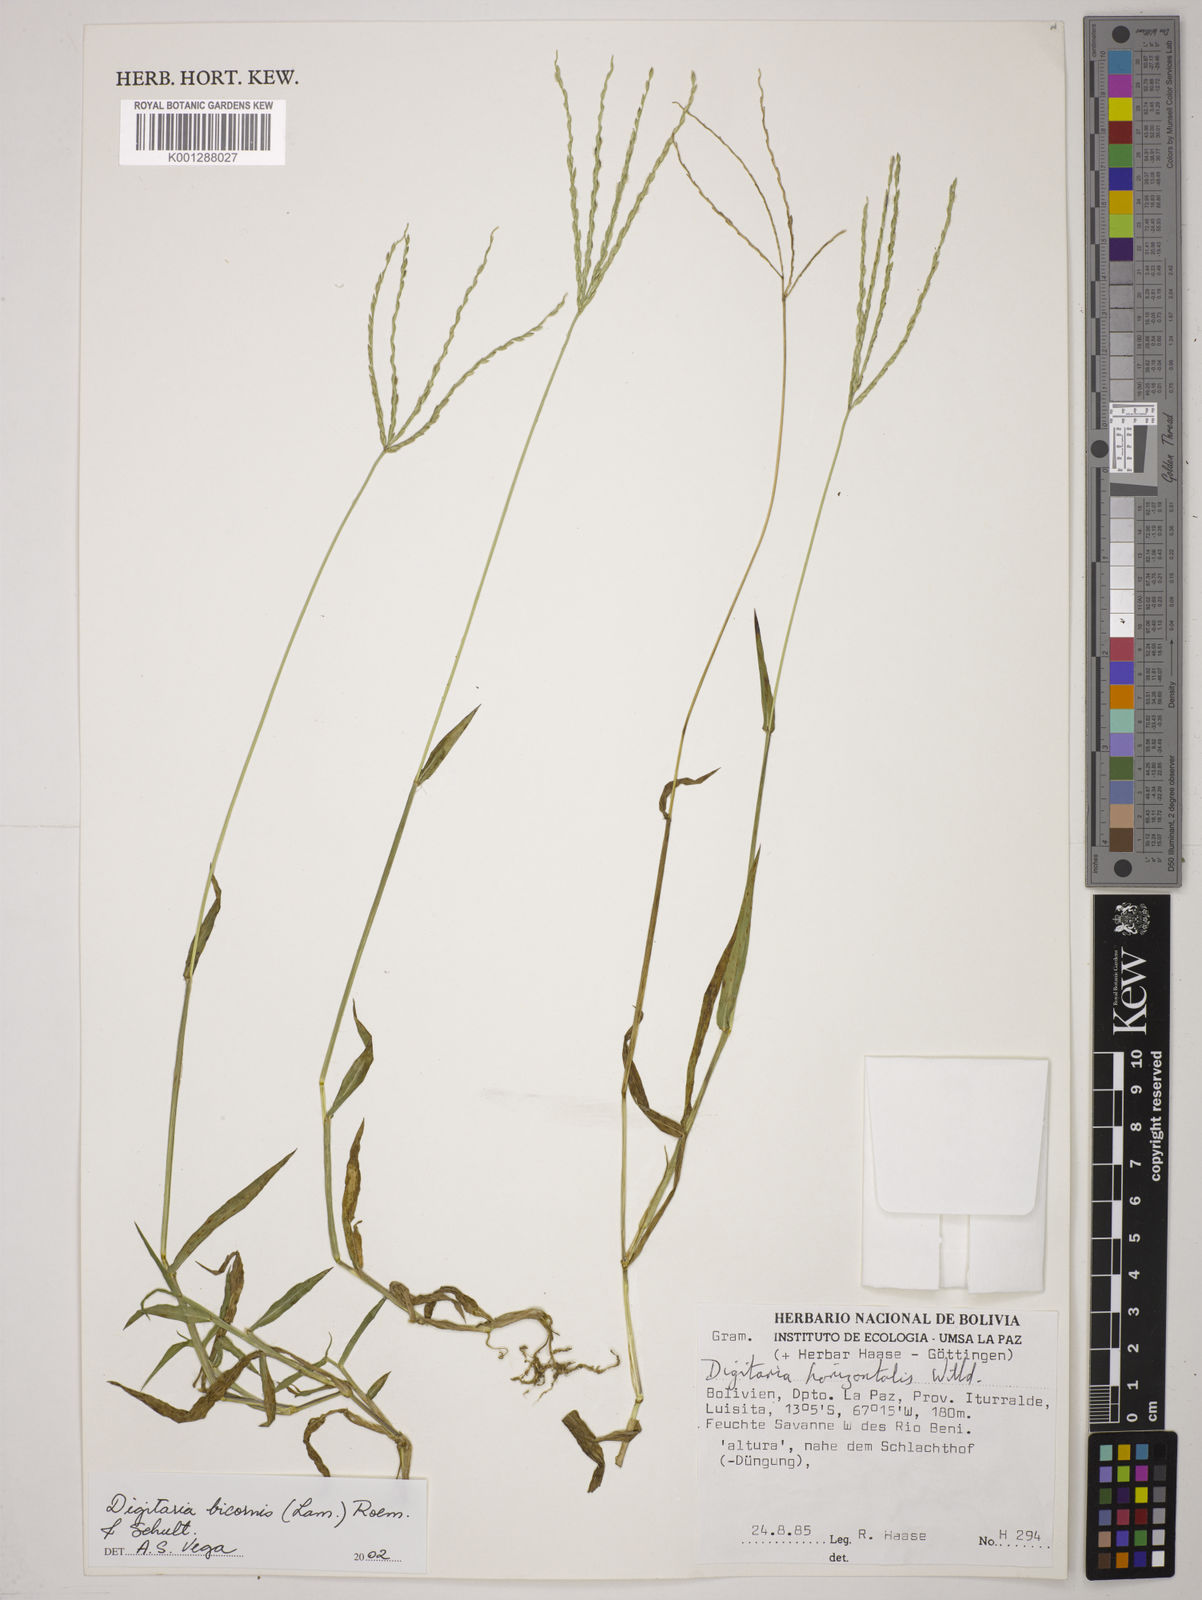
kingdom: Plantae
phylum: Tracheophyta
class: Liliopsida
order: Poales
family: Poaceae
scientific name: Poaceae
